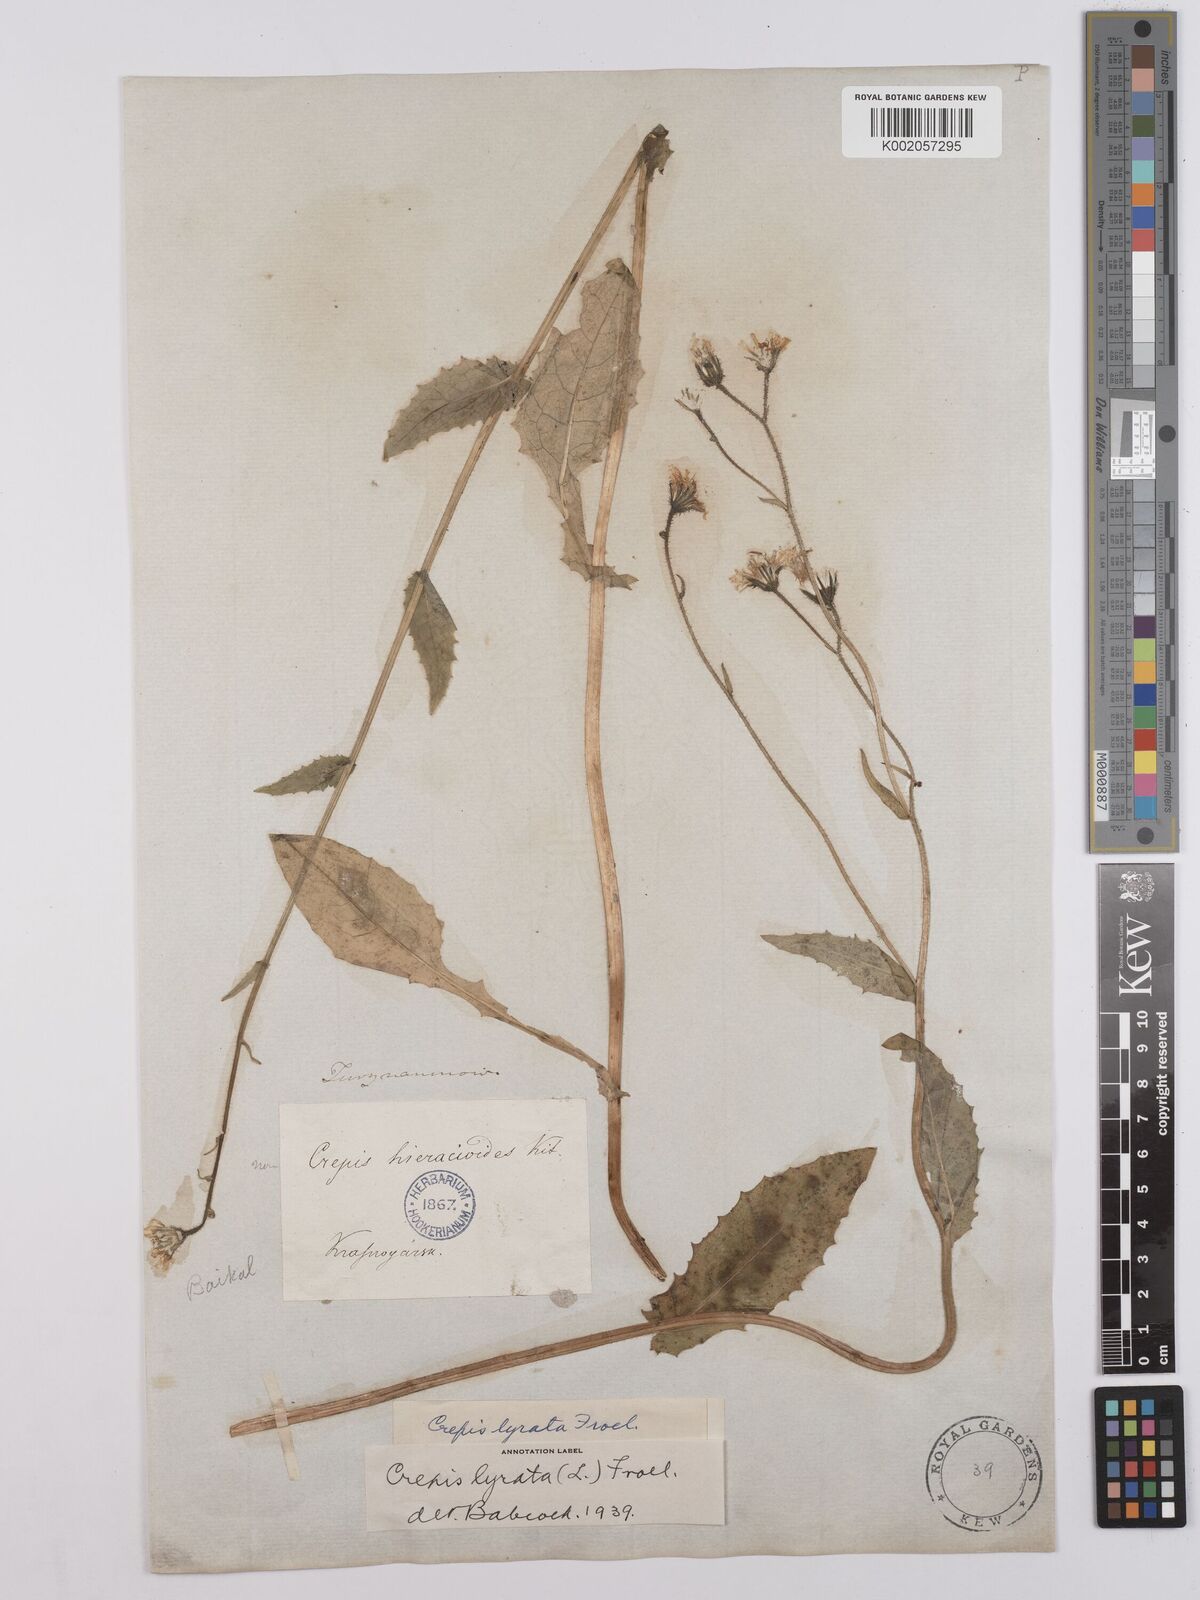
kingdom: Plantae
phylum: Tracheophyta
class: Magnoliopsida
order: Asterales
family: Asteraceae
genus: Crepis
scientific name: Crepis lyrata
